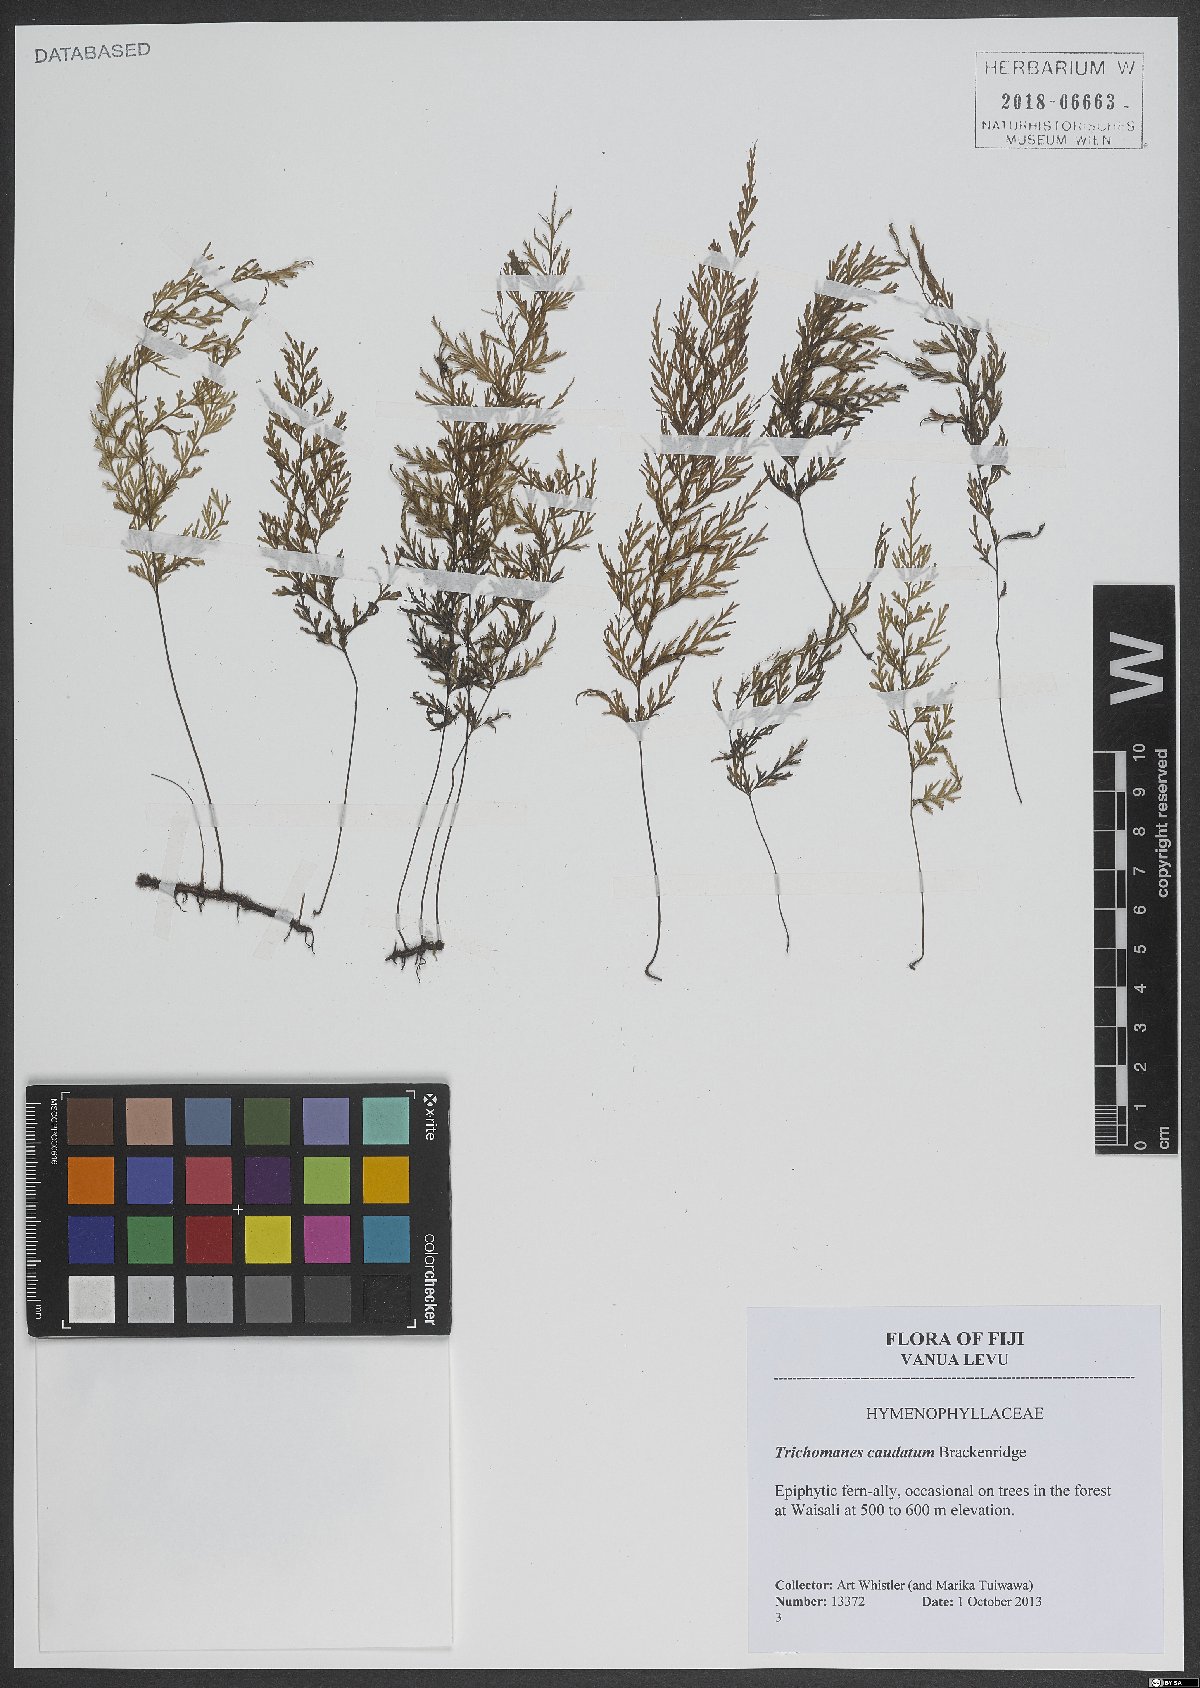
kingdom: Plantae
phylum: Tracheophyta
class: Polypodiopsida
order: Hymenophyllales
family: Hymenophyllaceae
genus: Abrodictyum
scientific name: Abrodictyum caudatum
